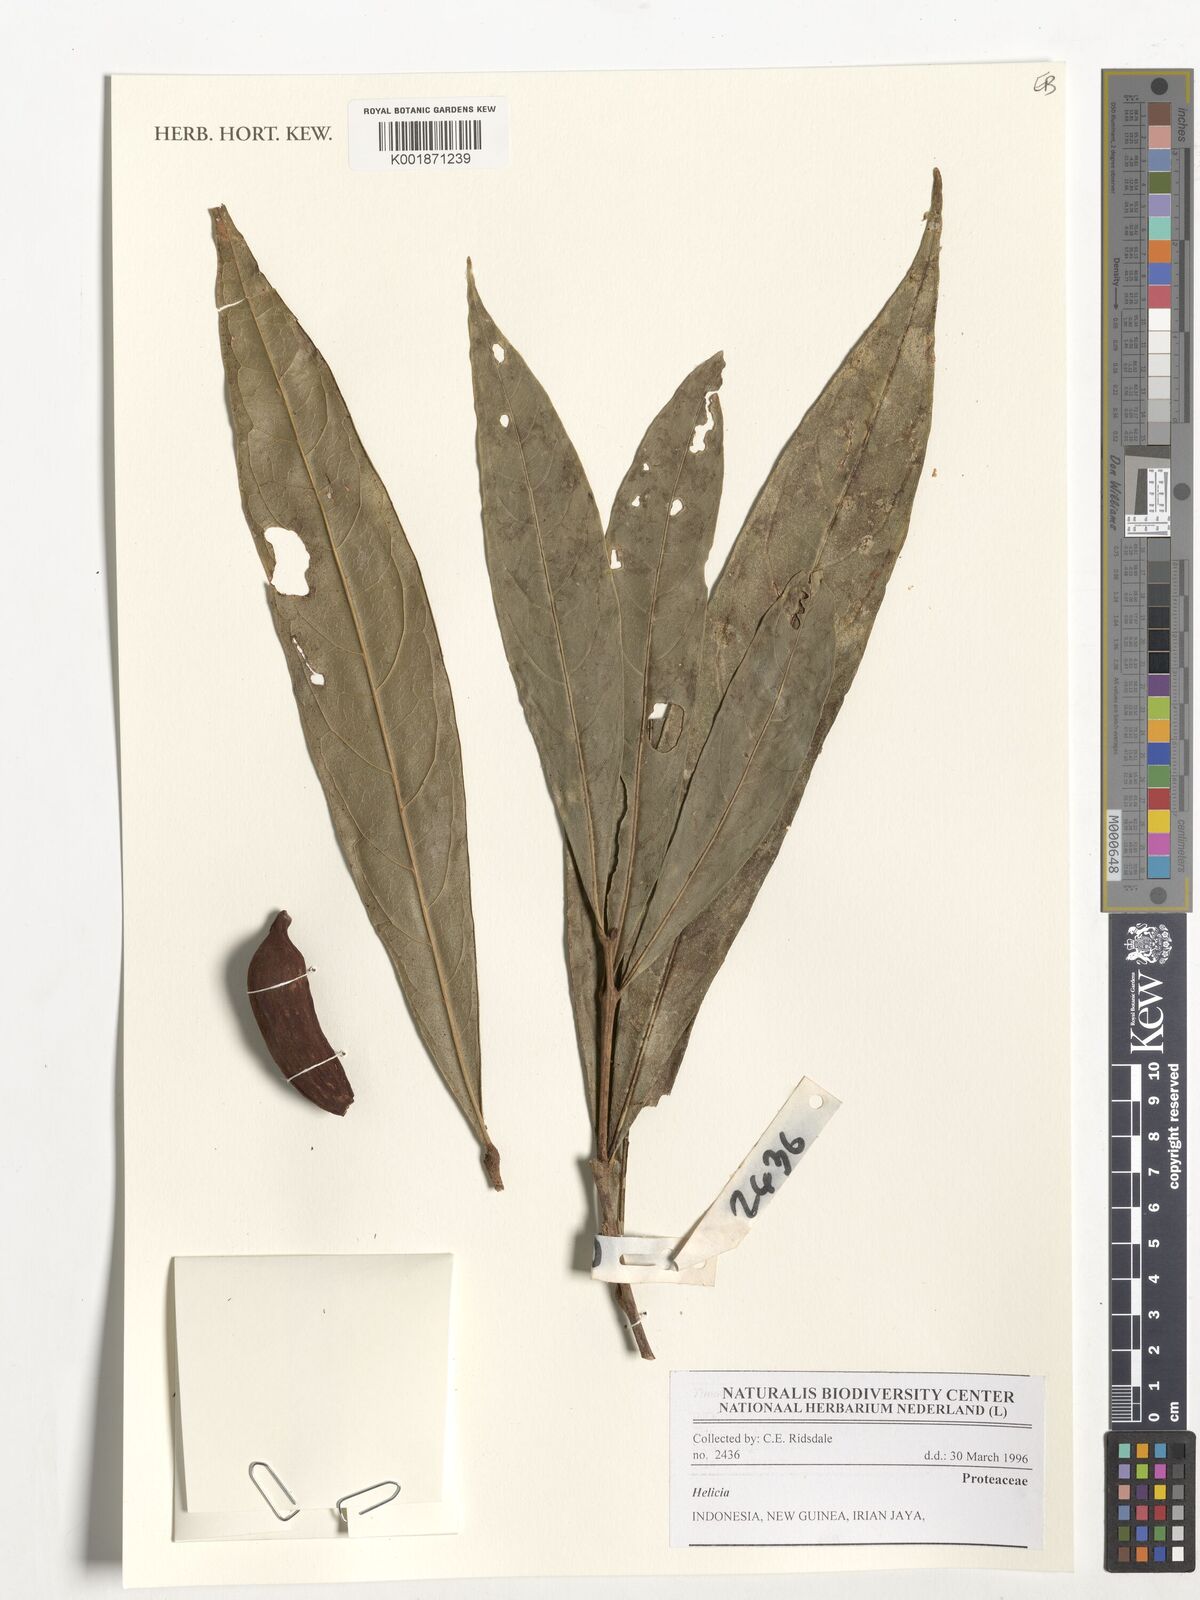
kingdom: Plantae
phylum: Tracheophyta
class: Magnoliopsida
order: Proteales
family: Proteaceae
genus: Helicia
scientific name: Helicia
